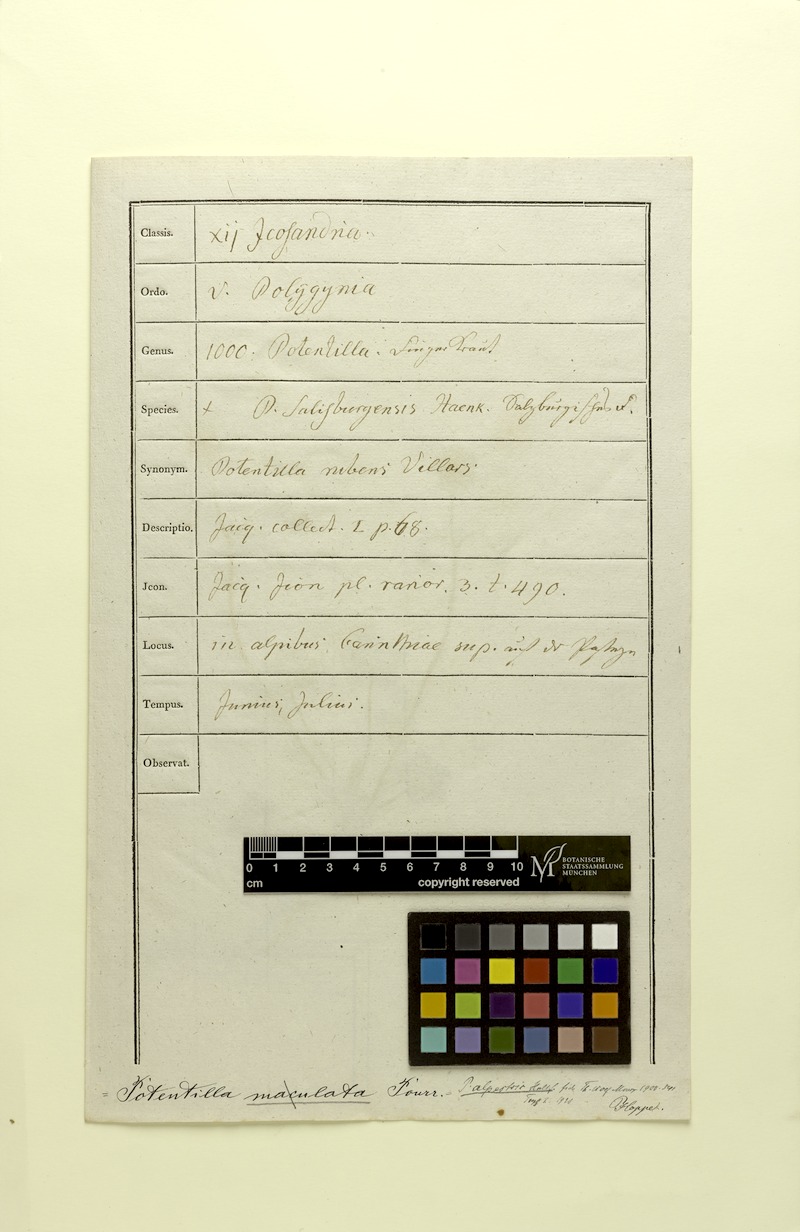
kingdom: Plantae
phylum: Tracheophyta
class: Magnoliopsida
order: Rosales
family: Rosaceae
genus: Potentilla
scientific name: Potentilla crantzii
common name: Alpine cinquefoil
